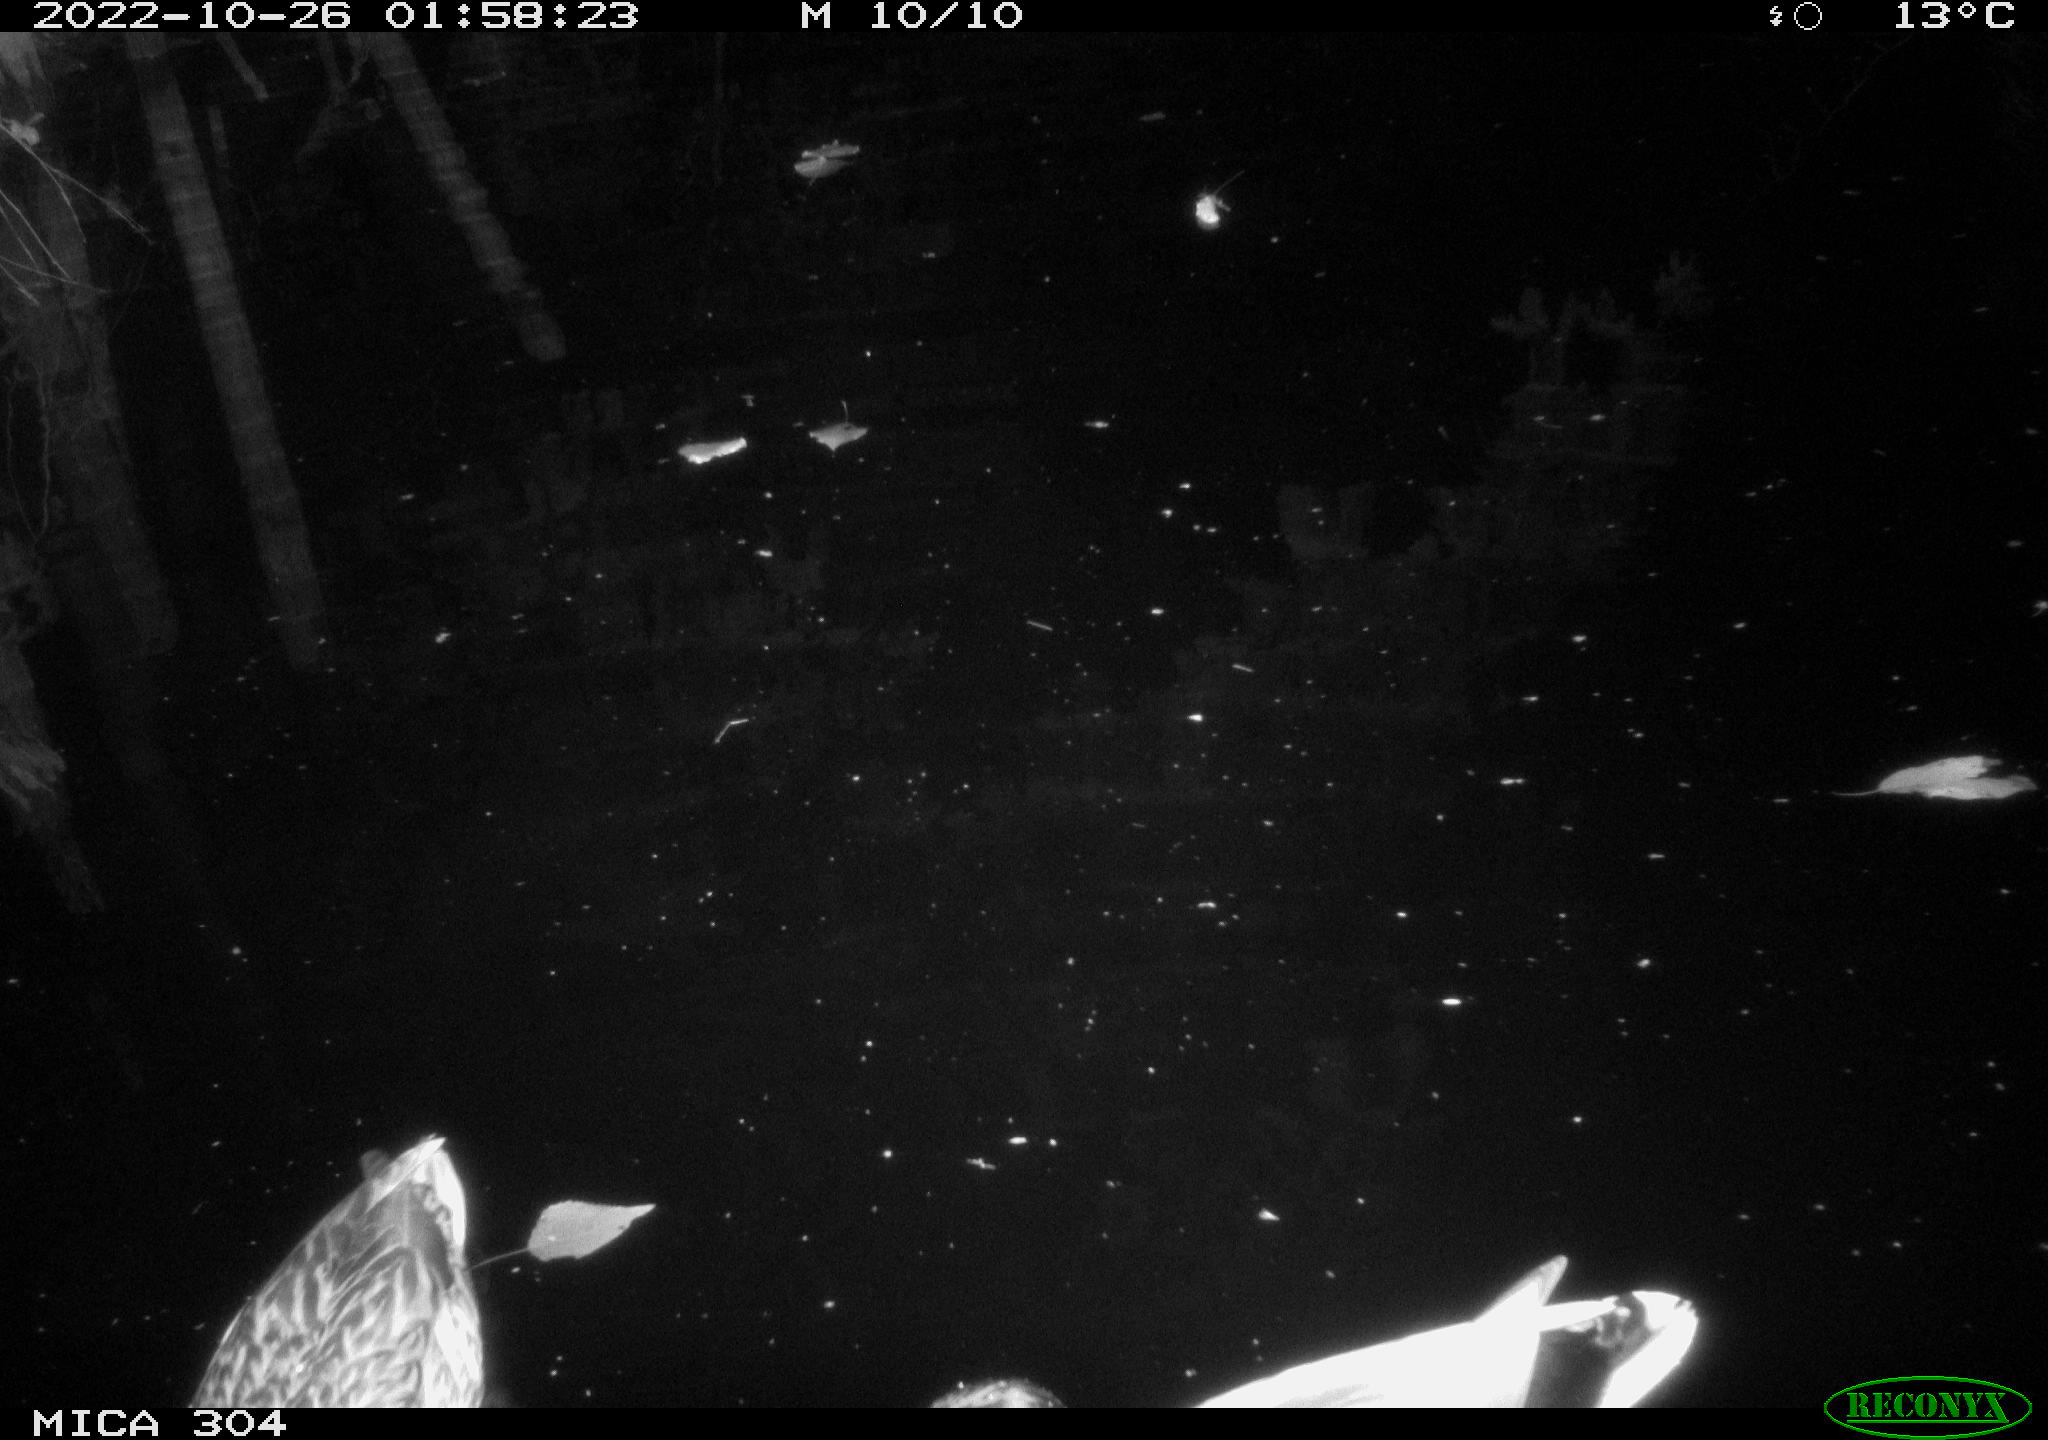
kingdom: Animalia
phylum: Chordata
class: Aves
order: Anseriformes
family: Anatidae
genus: Anas
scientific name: Anas
